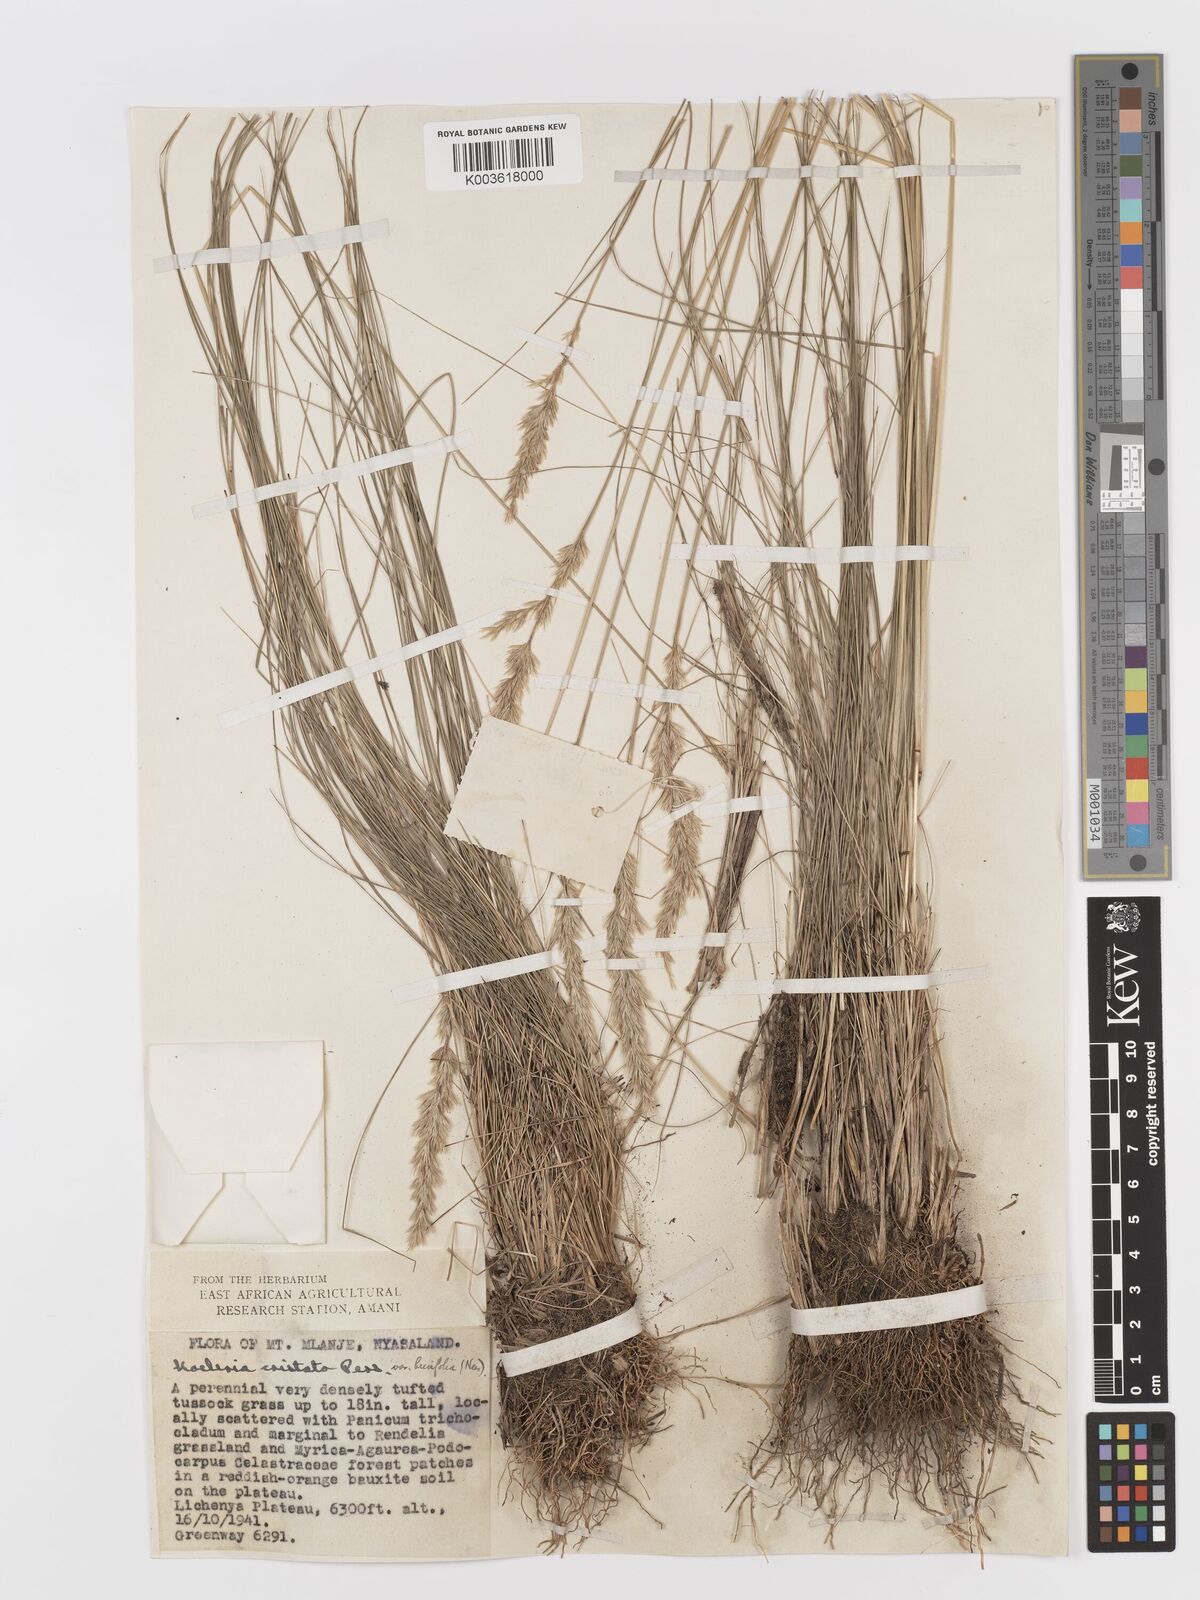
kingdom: Plantae
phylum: Tracheophyta
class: Liliopsida
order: Poales
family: Poaceae
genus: Koeleria
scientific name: Koeleria capensis
